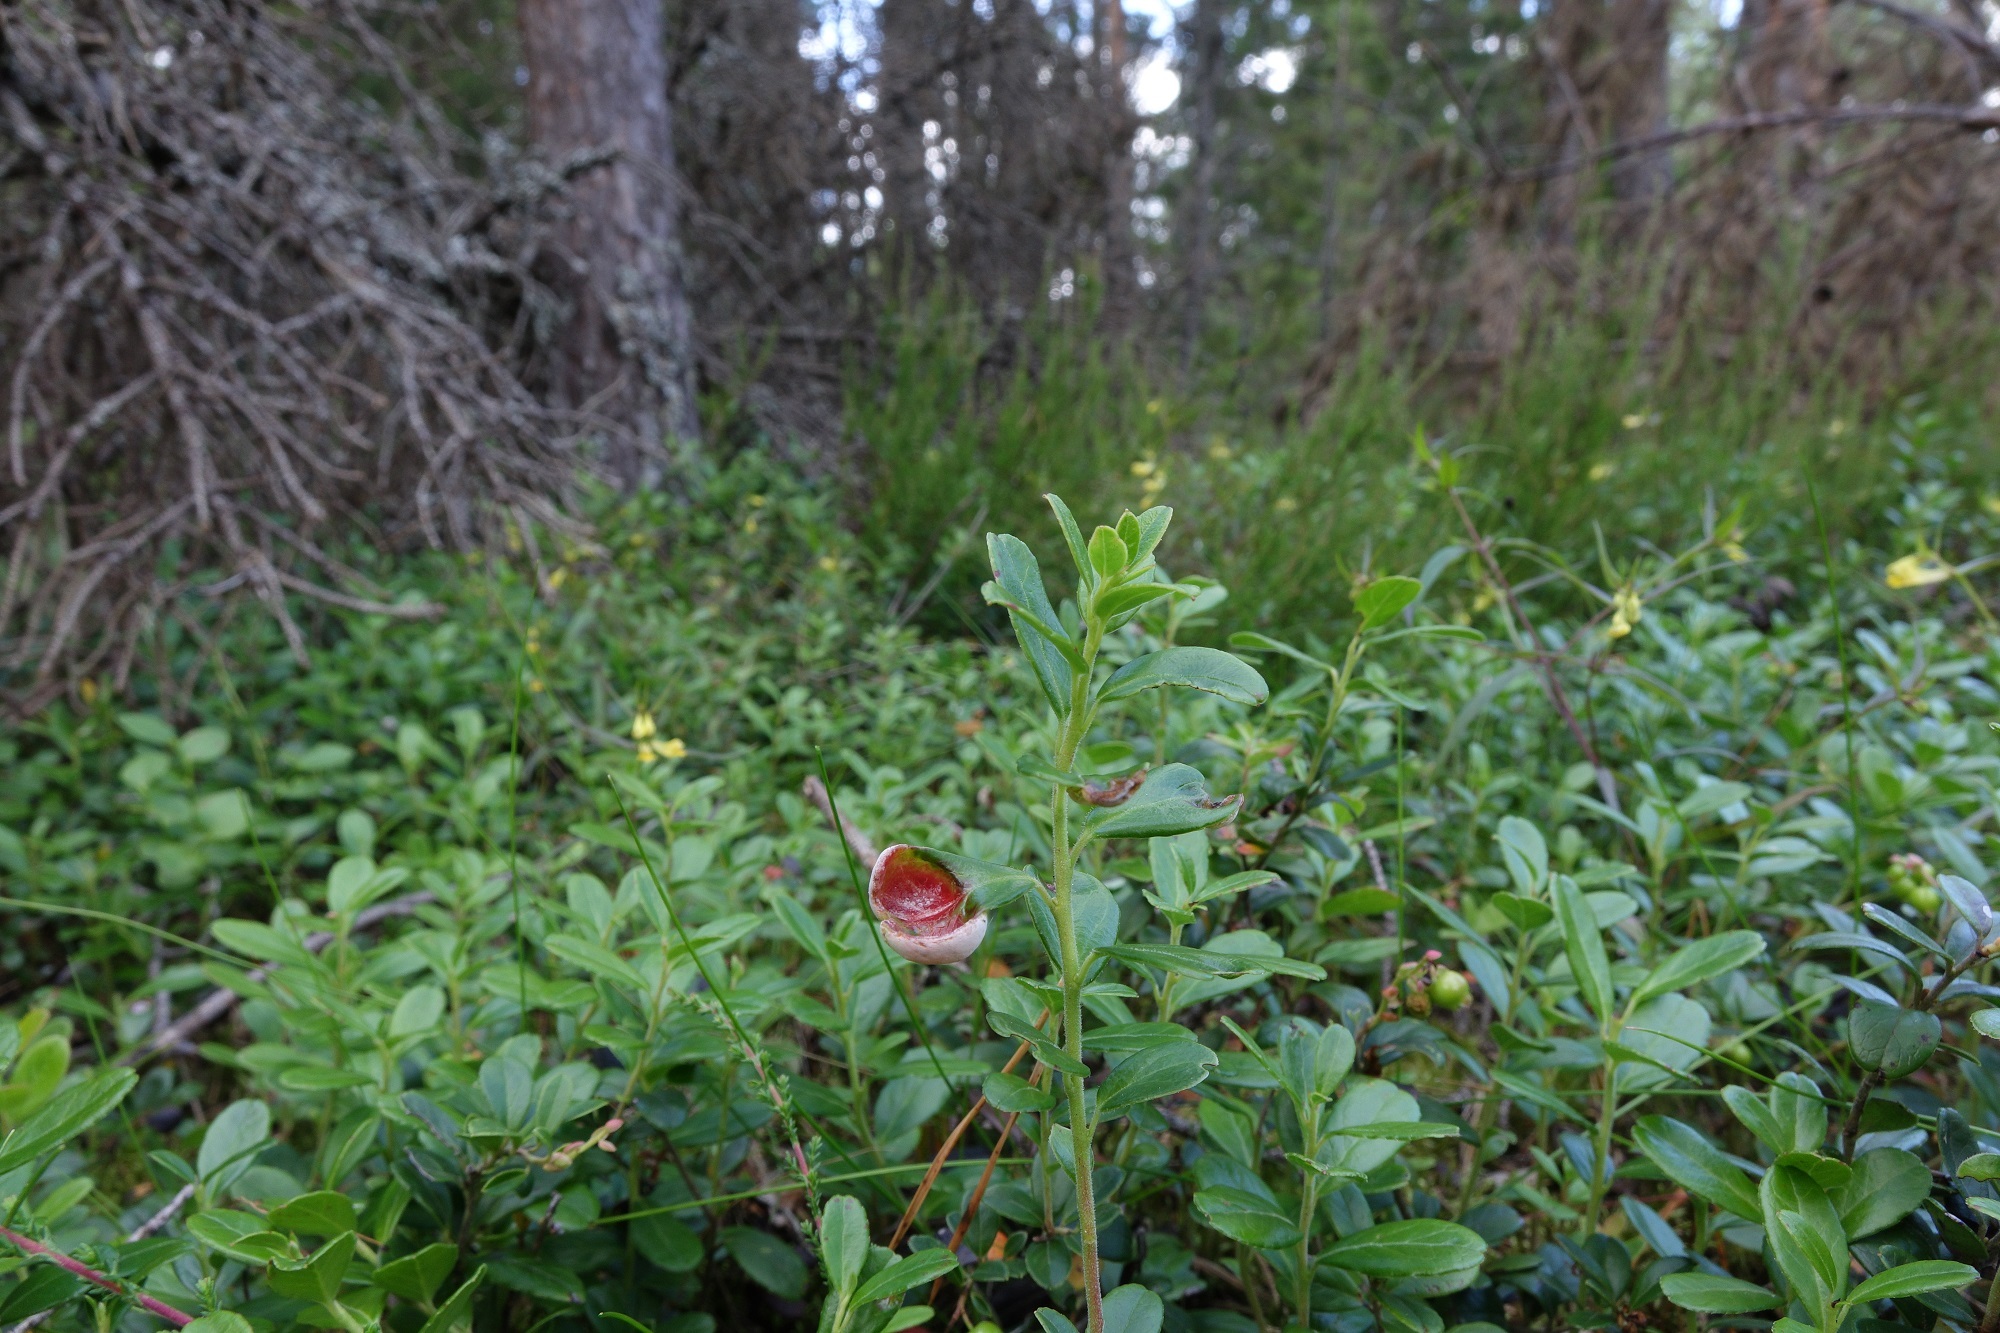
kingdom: Fungi
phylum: Basidiomycota
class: Exobasidiomycetes
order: Exobasidiales
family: Exobasidiaceae
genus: Exobasidium
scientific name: Exobasidium vaccinii
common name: Cowberry redleaf
